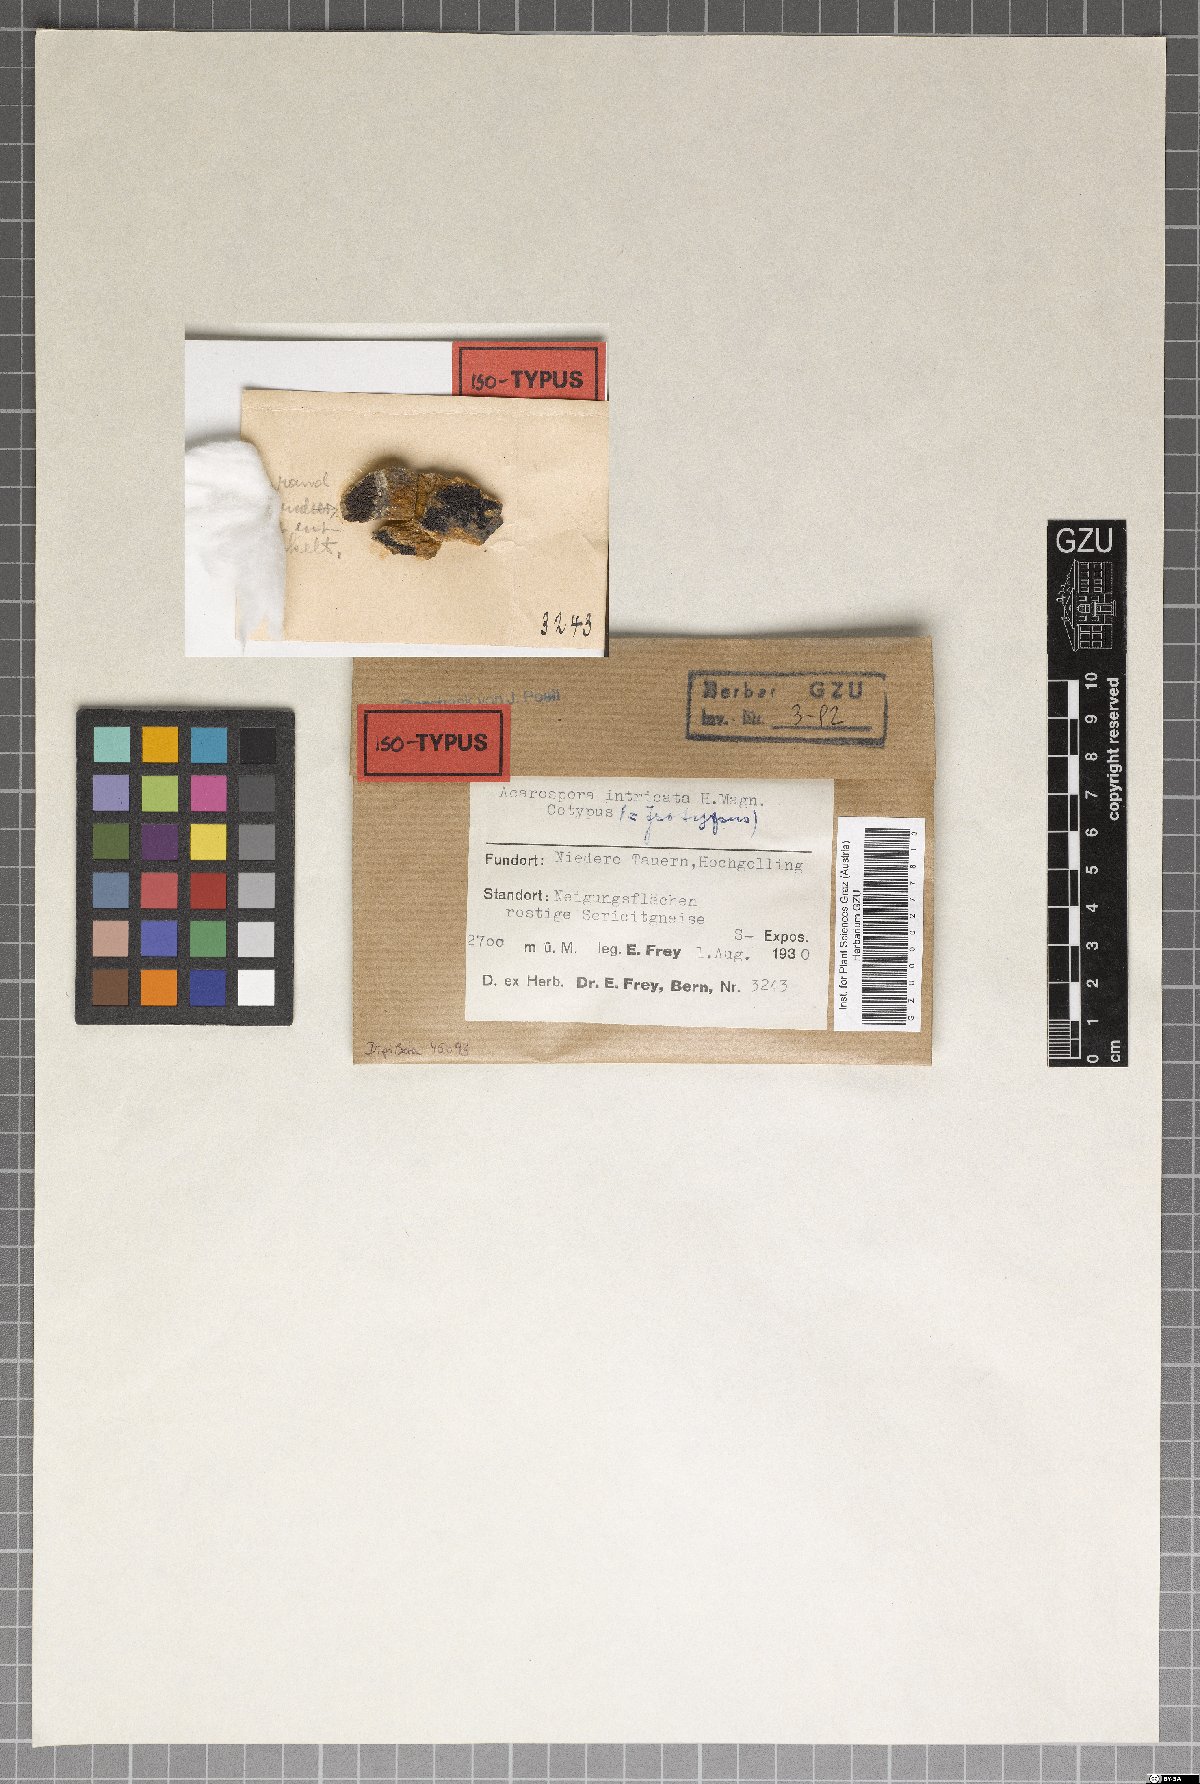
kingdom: Fungi
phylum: Ascomycota
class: Lecanoromycetes
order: Acarosporales
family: Acarosporaceae
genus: Timdalia
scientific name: Timdalia intricata
